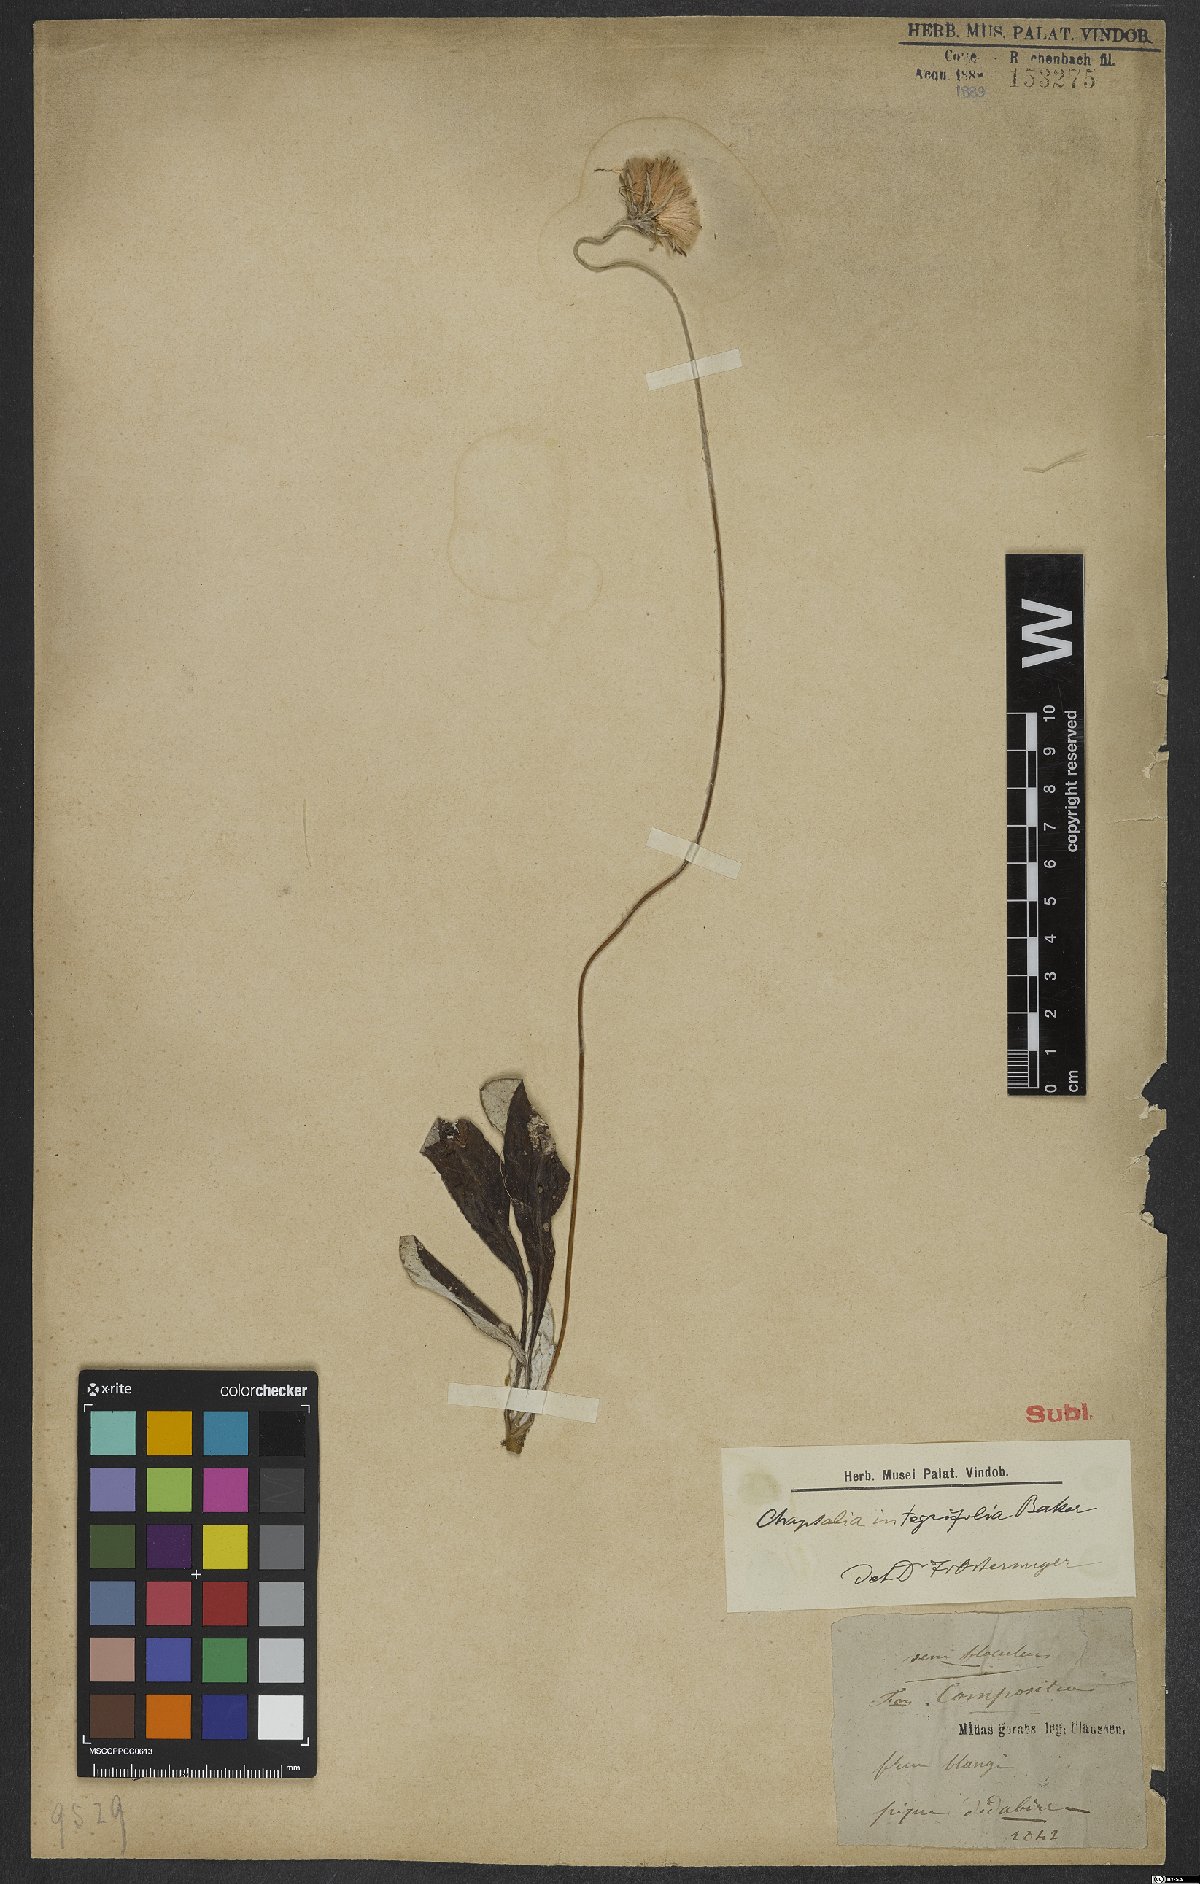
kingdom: Plantae
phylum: Tracheophyta
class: Magnoliopsida
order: Asterales
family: Asteraceae
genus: Chaptalia
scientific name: Chaptalia integerrima
